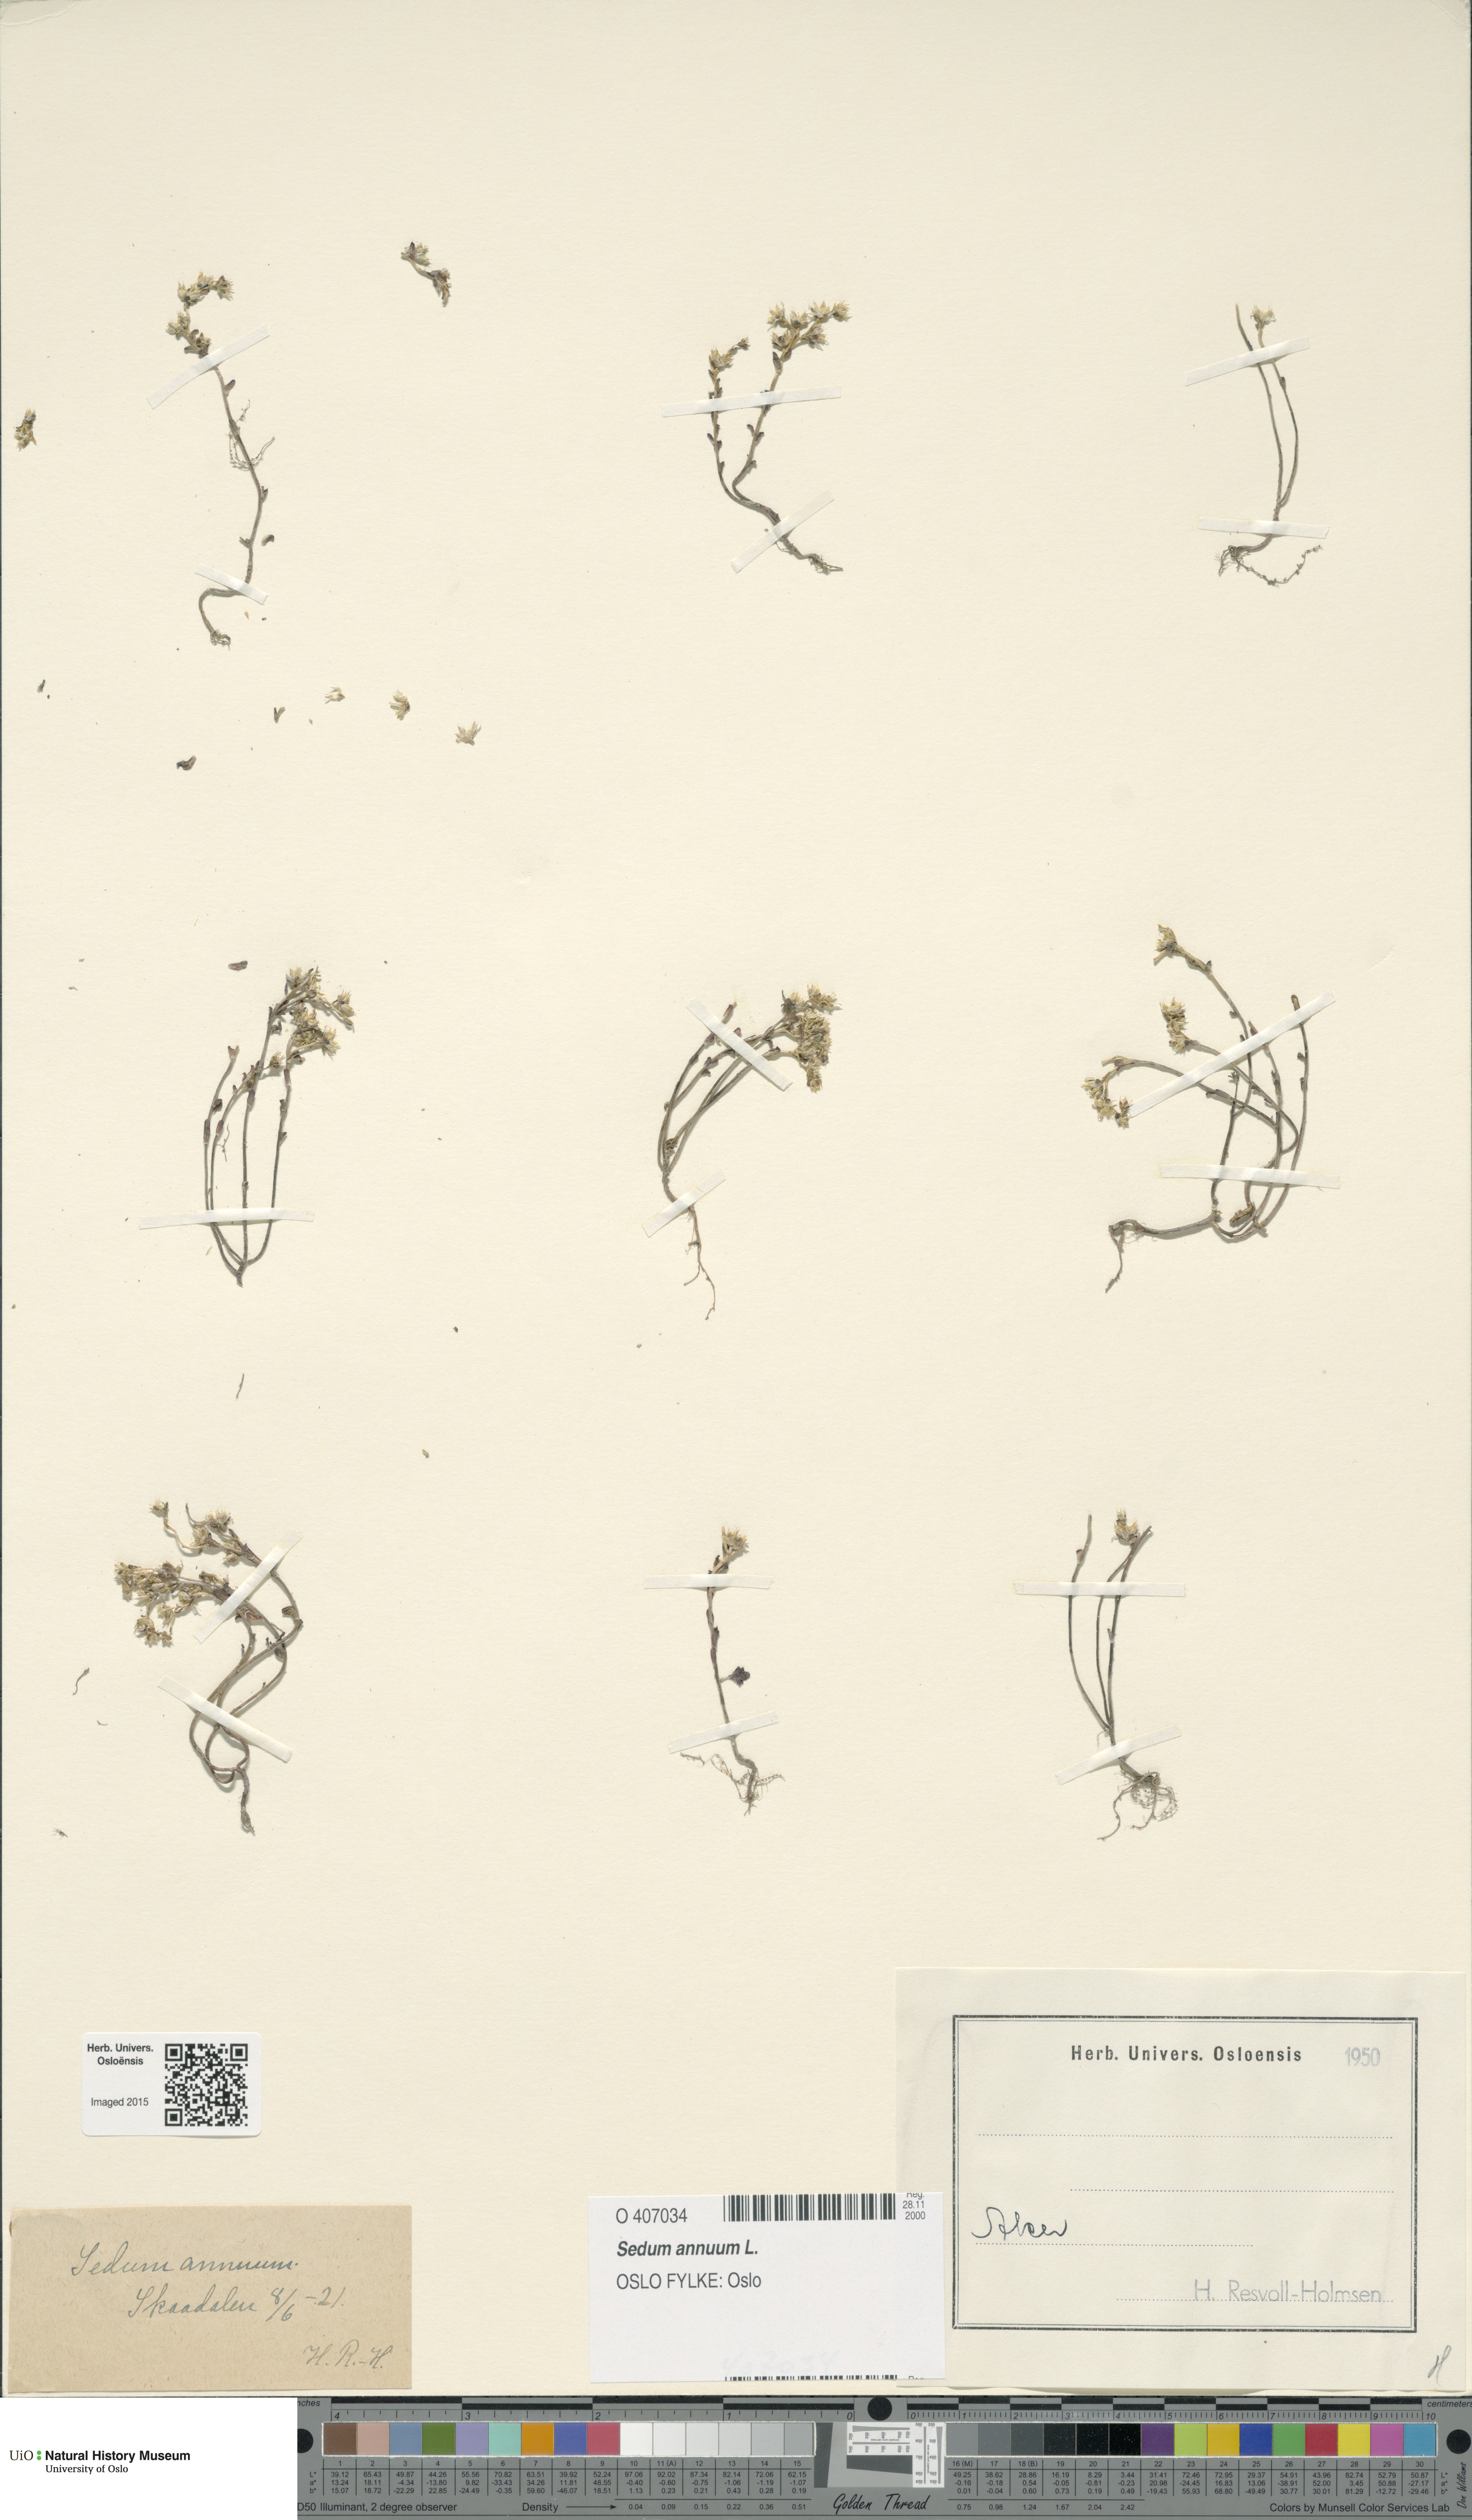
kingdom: Plantae
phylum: Tracheophyta
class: Magnoliopsida
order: Saxifragales
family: Crassulaceae
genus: Sedum
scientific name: Sedum annuum
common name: Annual stonecrop
